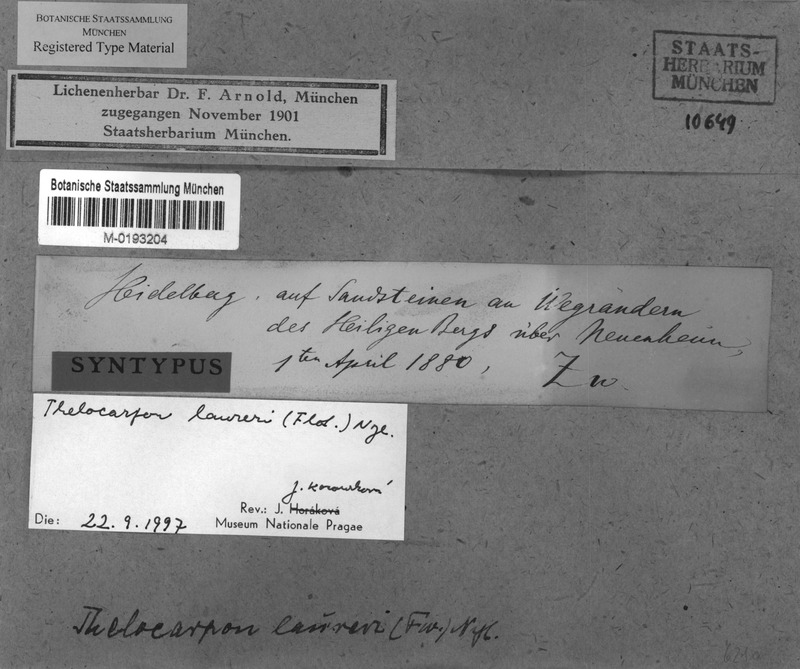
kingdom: Fungi
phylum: Ascomycota
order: Thelocarpales
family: Thelocarpaceae
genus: Thelocarpon
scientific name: Thelocarpon laureri
